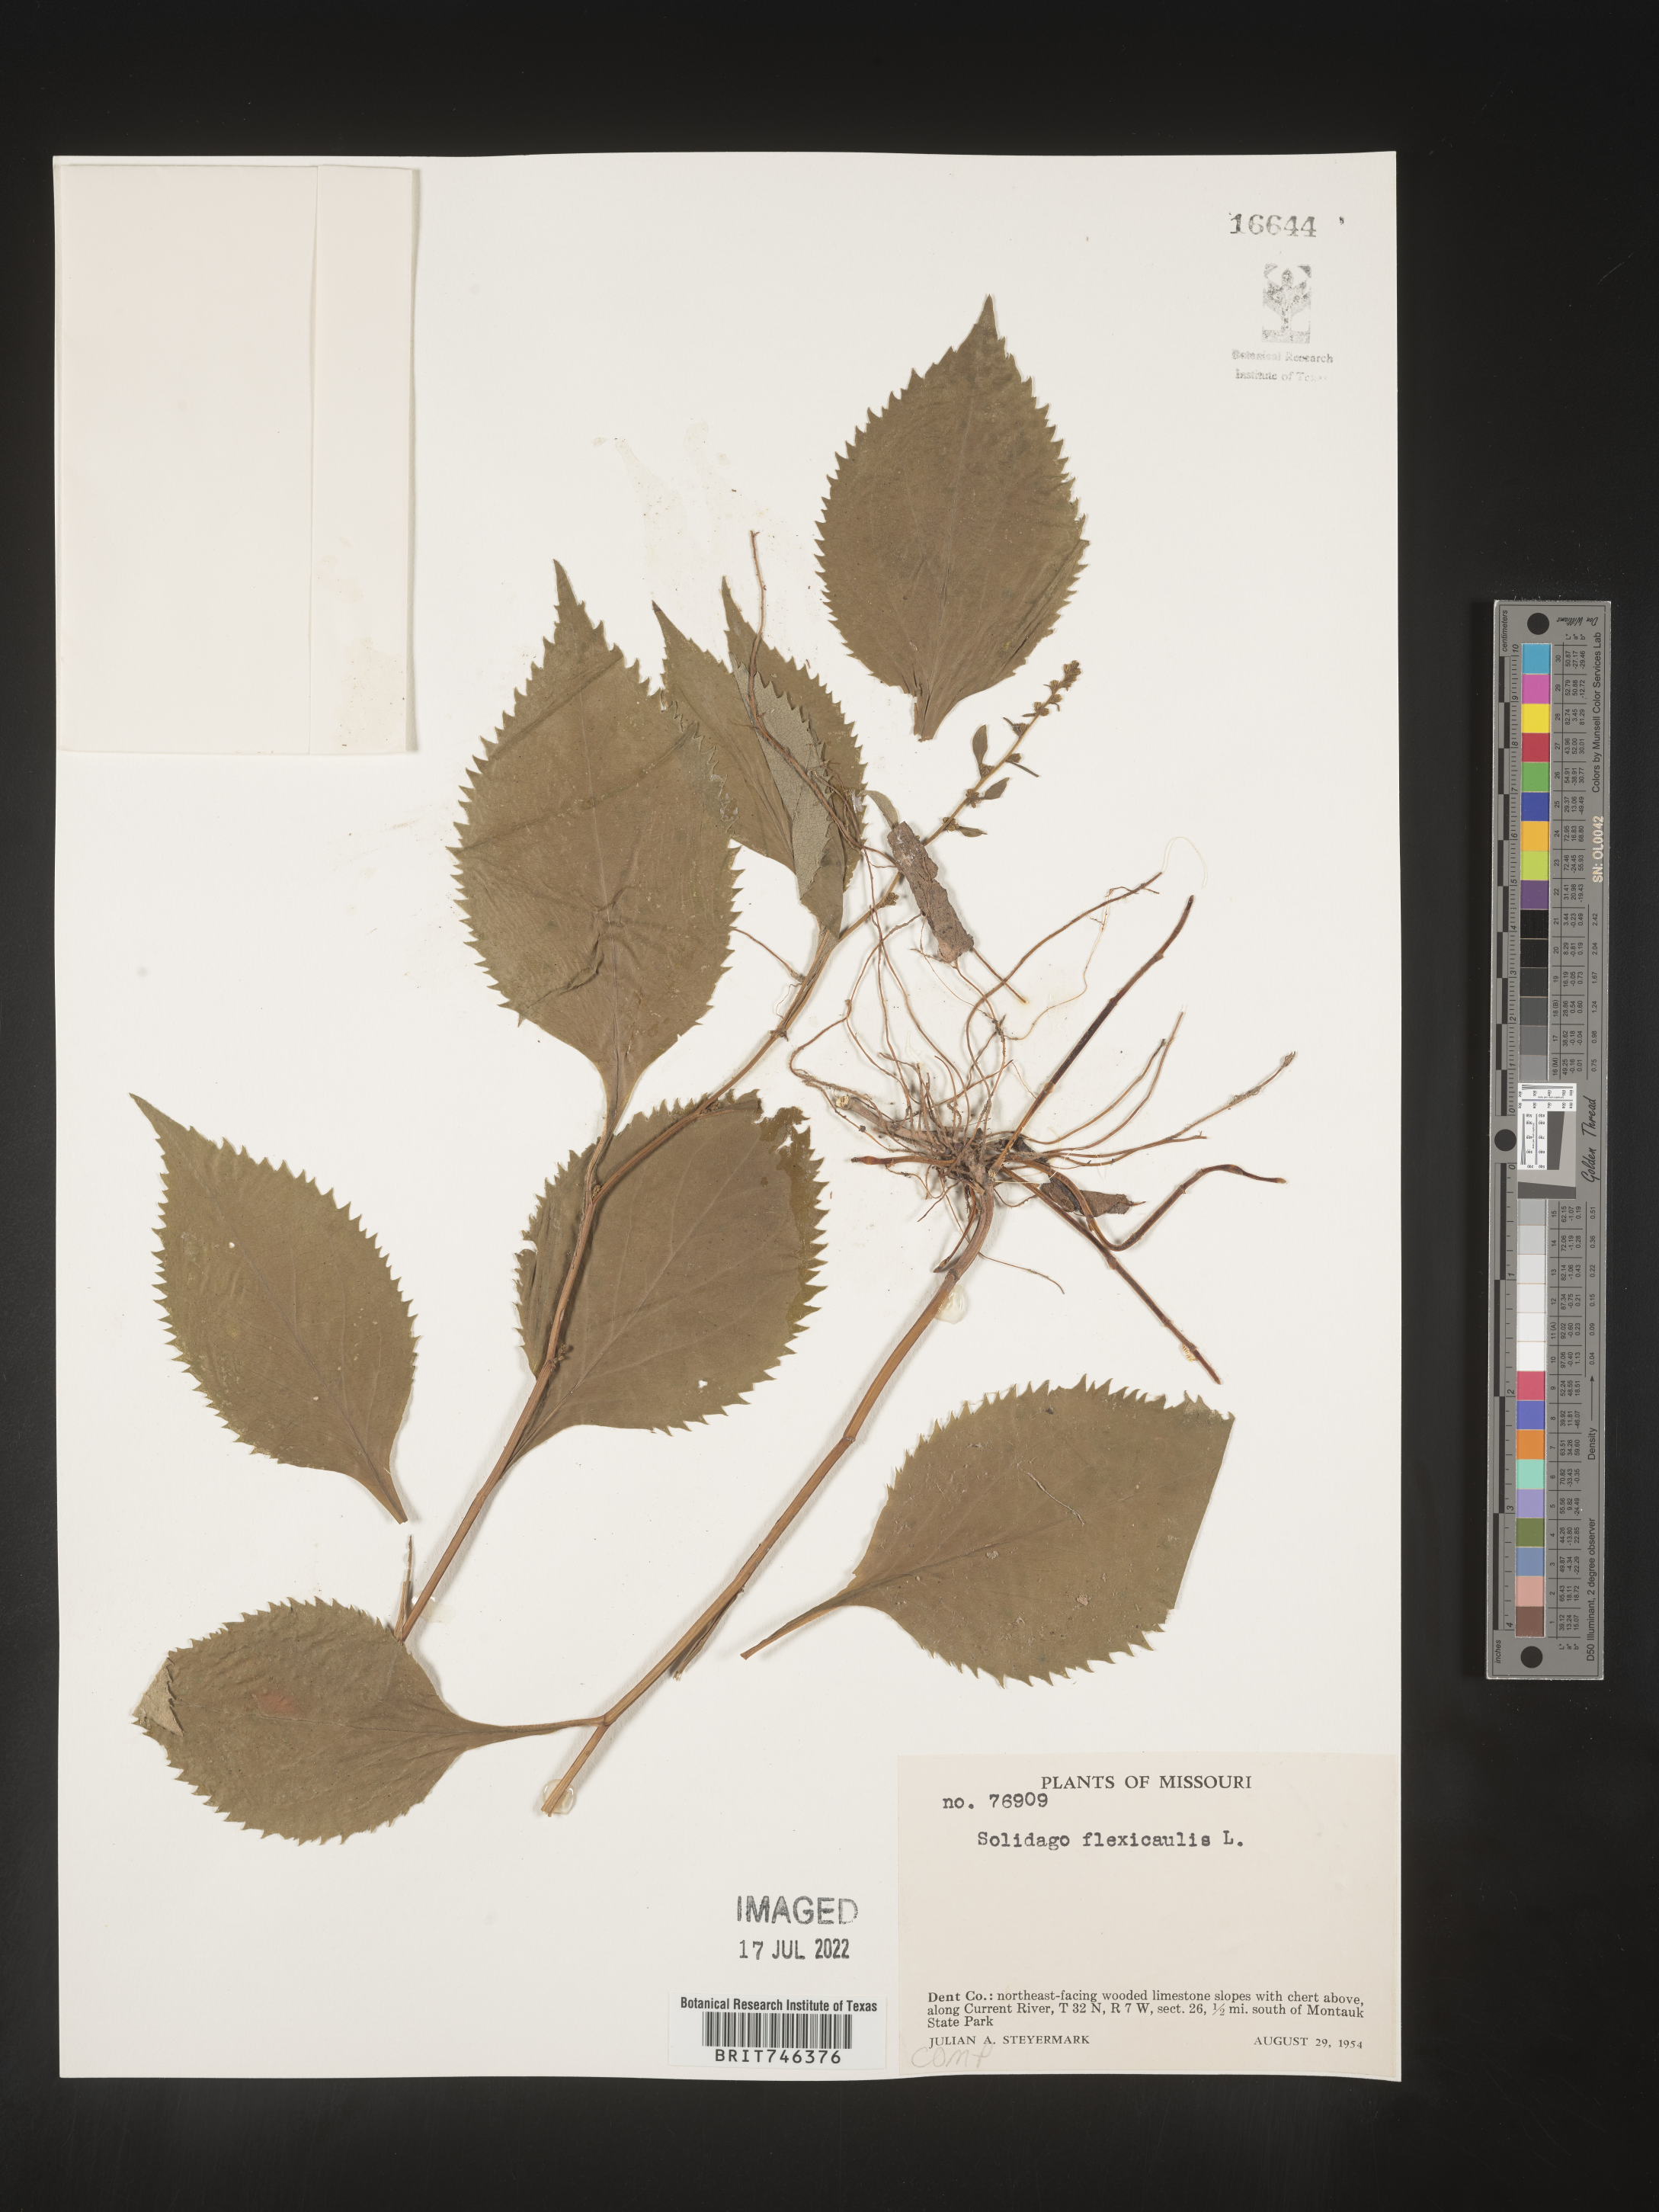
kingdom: Plantae
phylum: Tracheophyta
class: Magnoliopsida
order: Asterales
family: Asteraceae
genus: Solidago
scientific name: Solidago flexicaulis
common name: Zig-zag goldenrod
